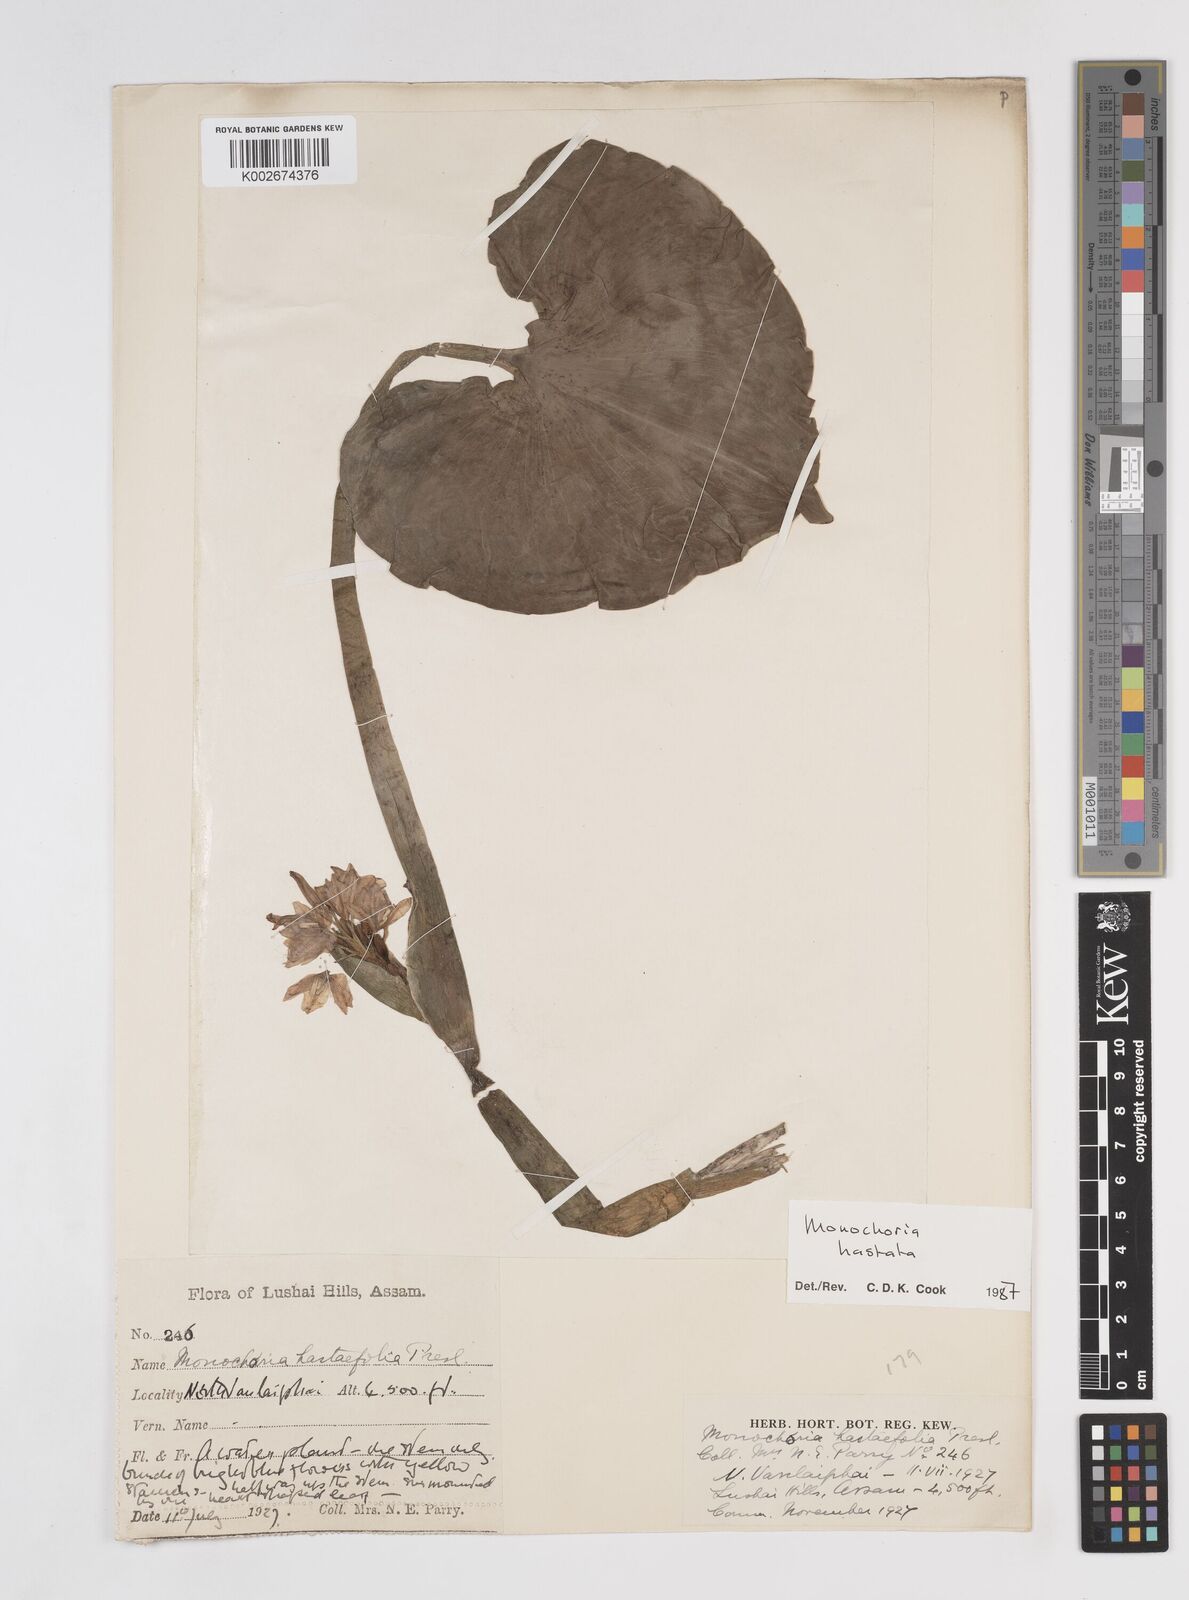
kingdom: Plantae
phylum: Tracheophyta
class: Liliopsida
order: Commelinales
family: Pontederiaceae
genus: Pontederia
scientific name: Pontederia hastata
